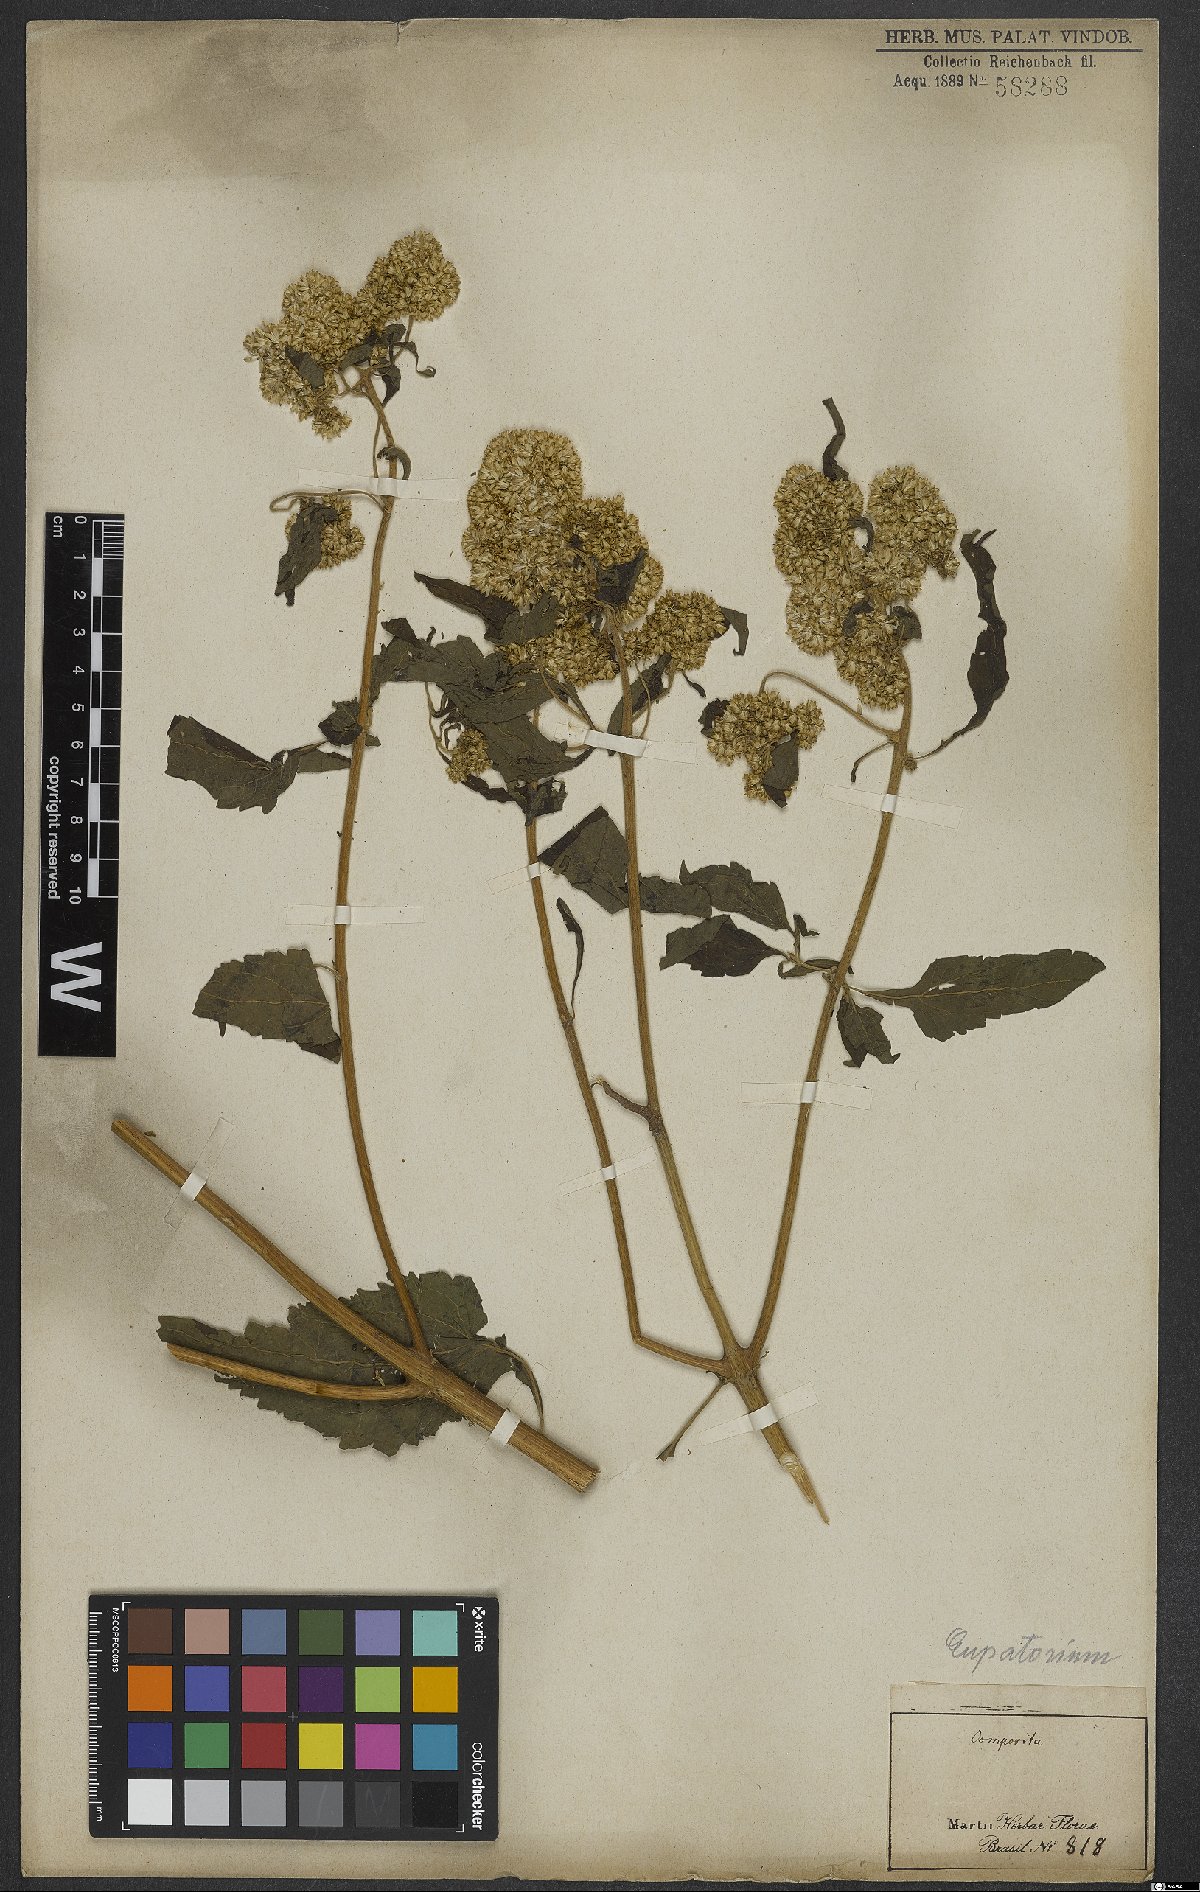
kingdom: Plantae
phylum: Tracheophyta
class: Magnoliopsida
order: Asterales
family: Asteraceae
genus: Eupatorium
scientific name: Eupatorium
